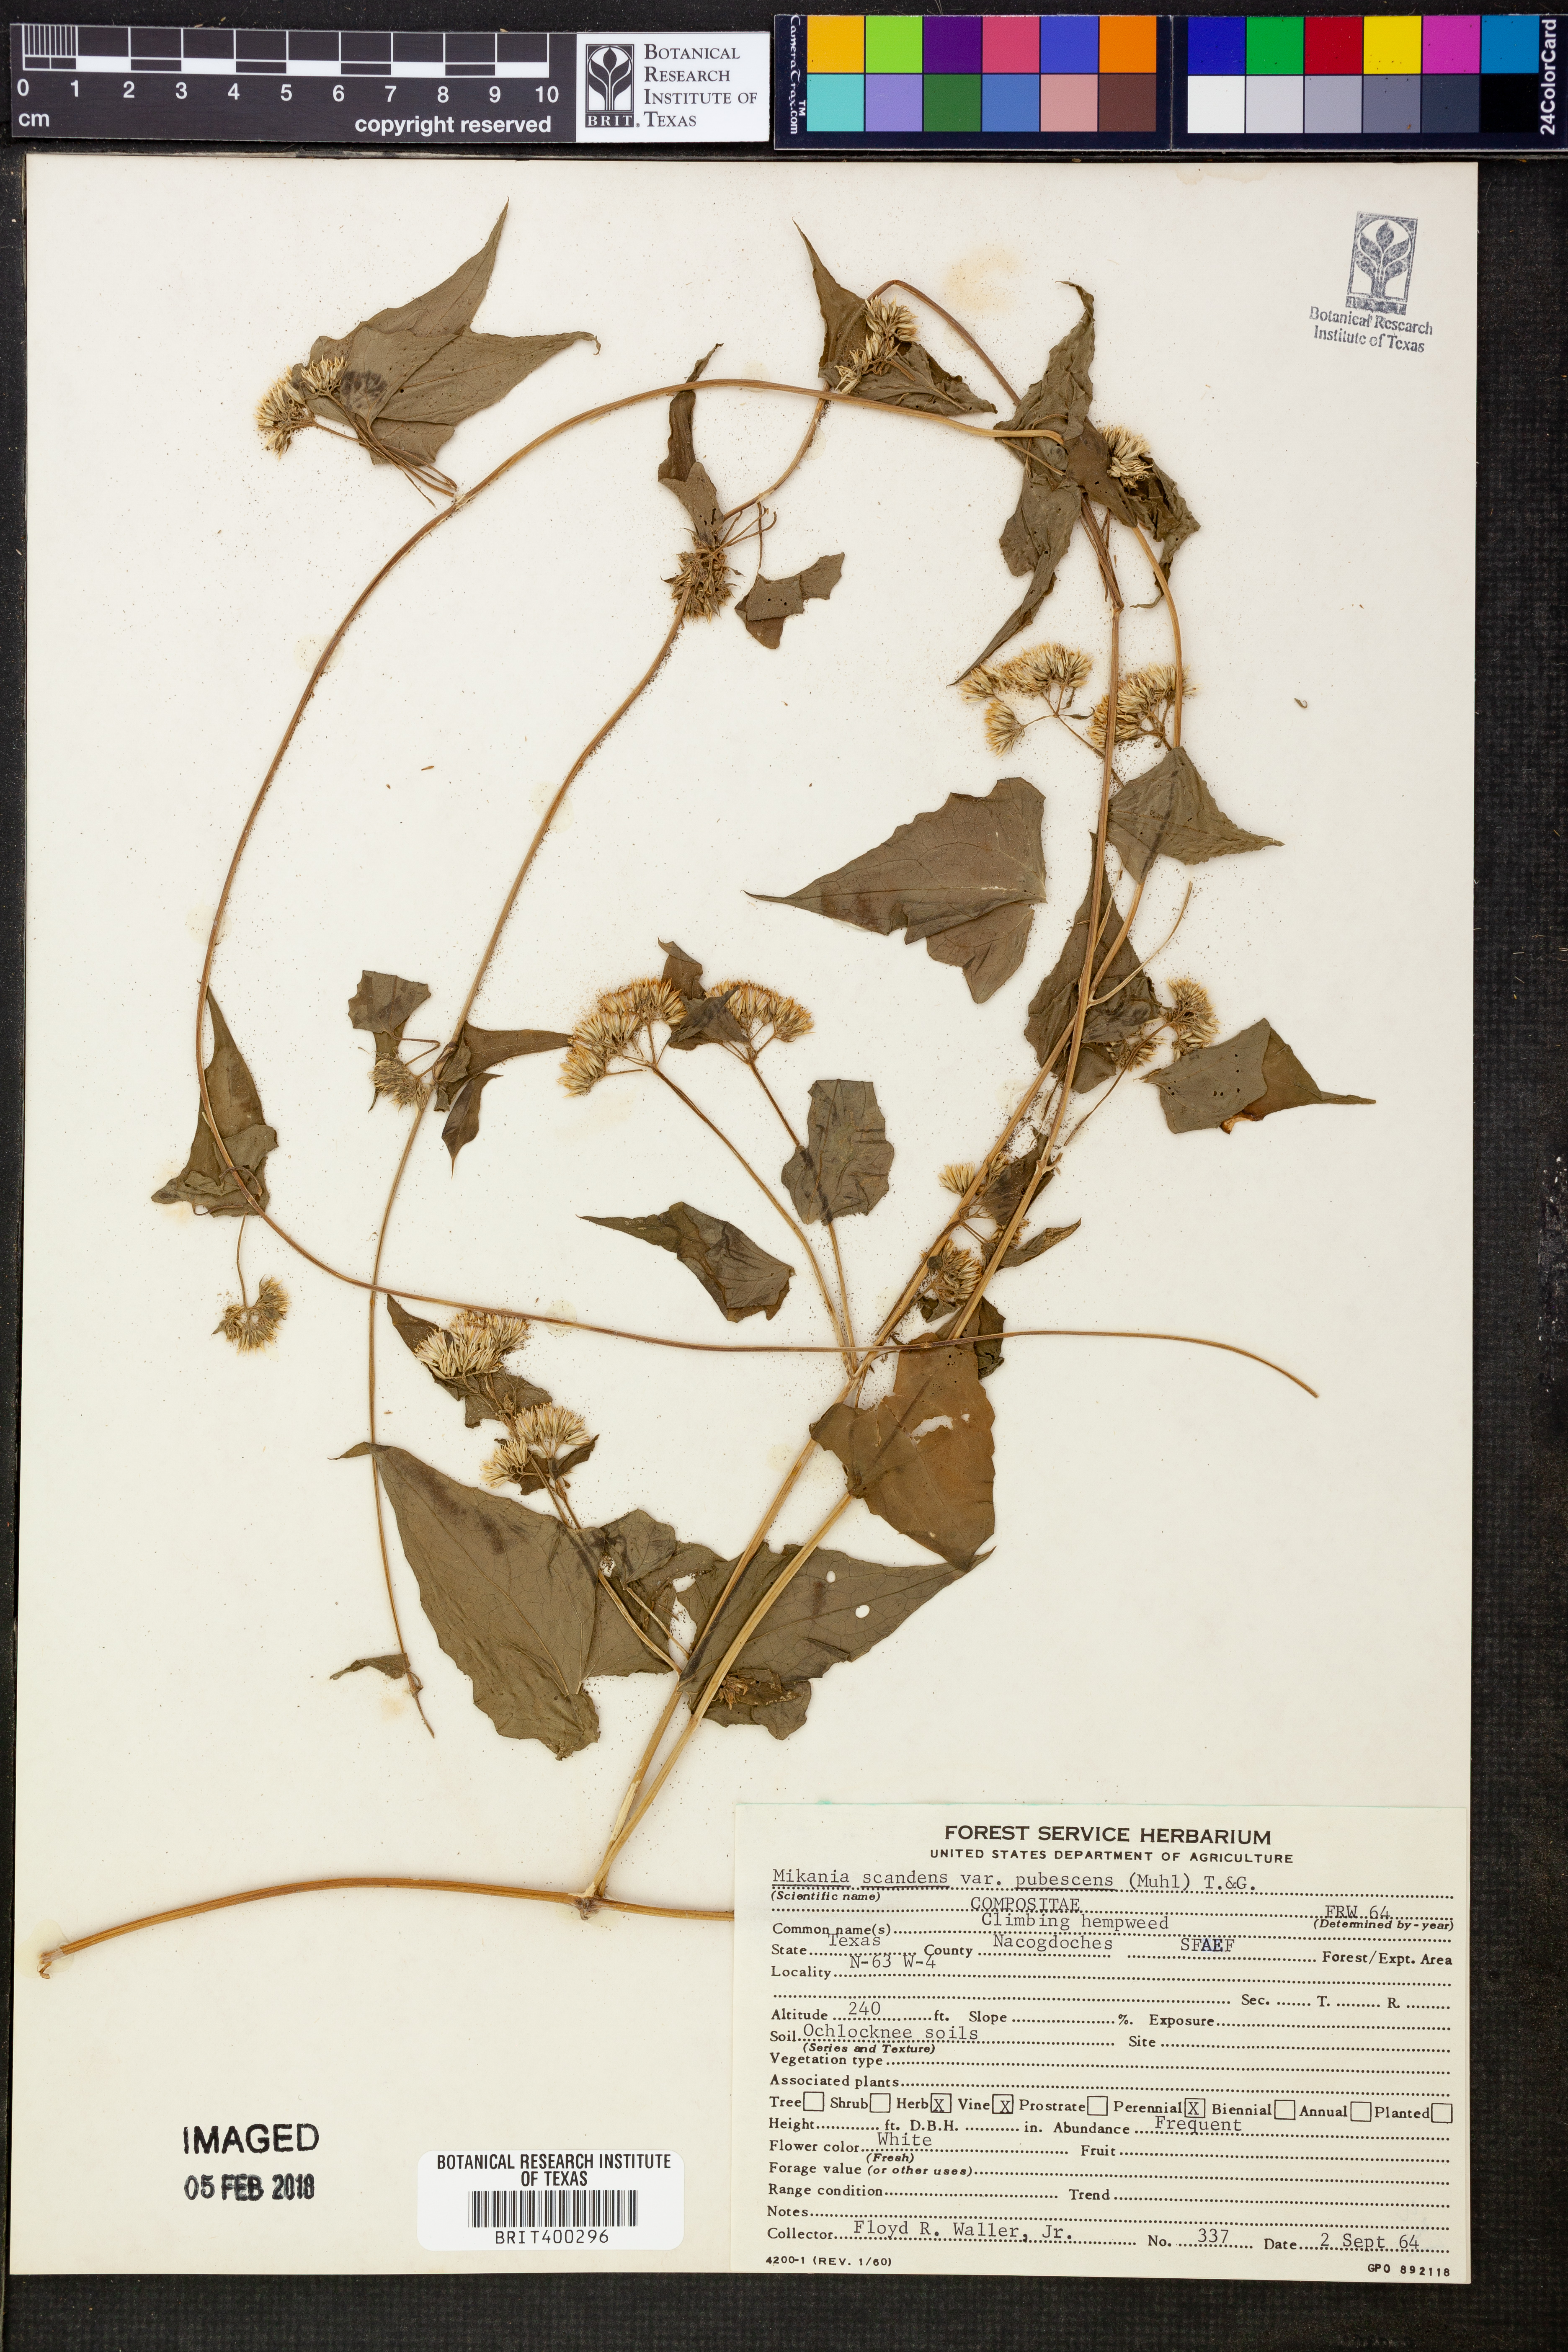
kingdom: Plantae
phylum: Tracheophyta
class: Magnoliopsida
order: Asterales
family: Asteraceae
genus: Mikania
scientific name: Mikania cordifolia
